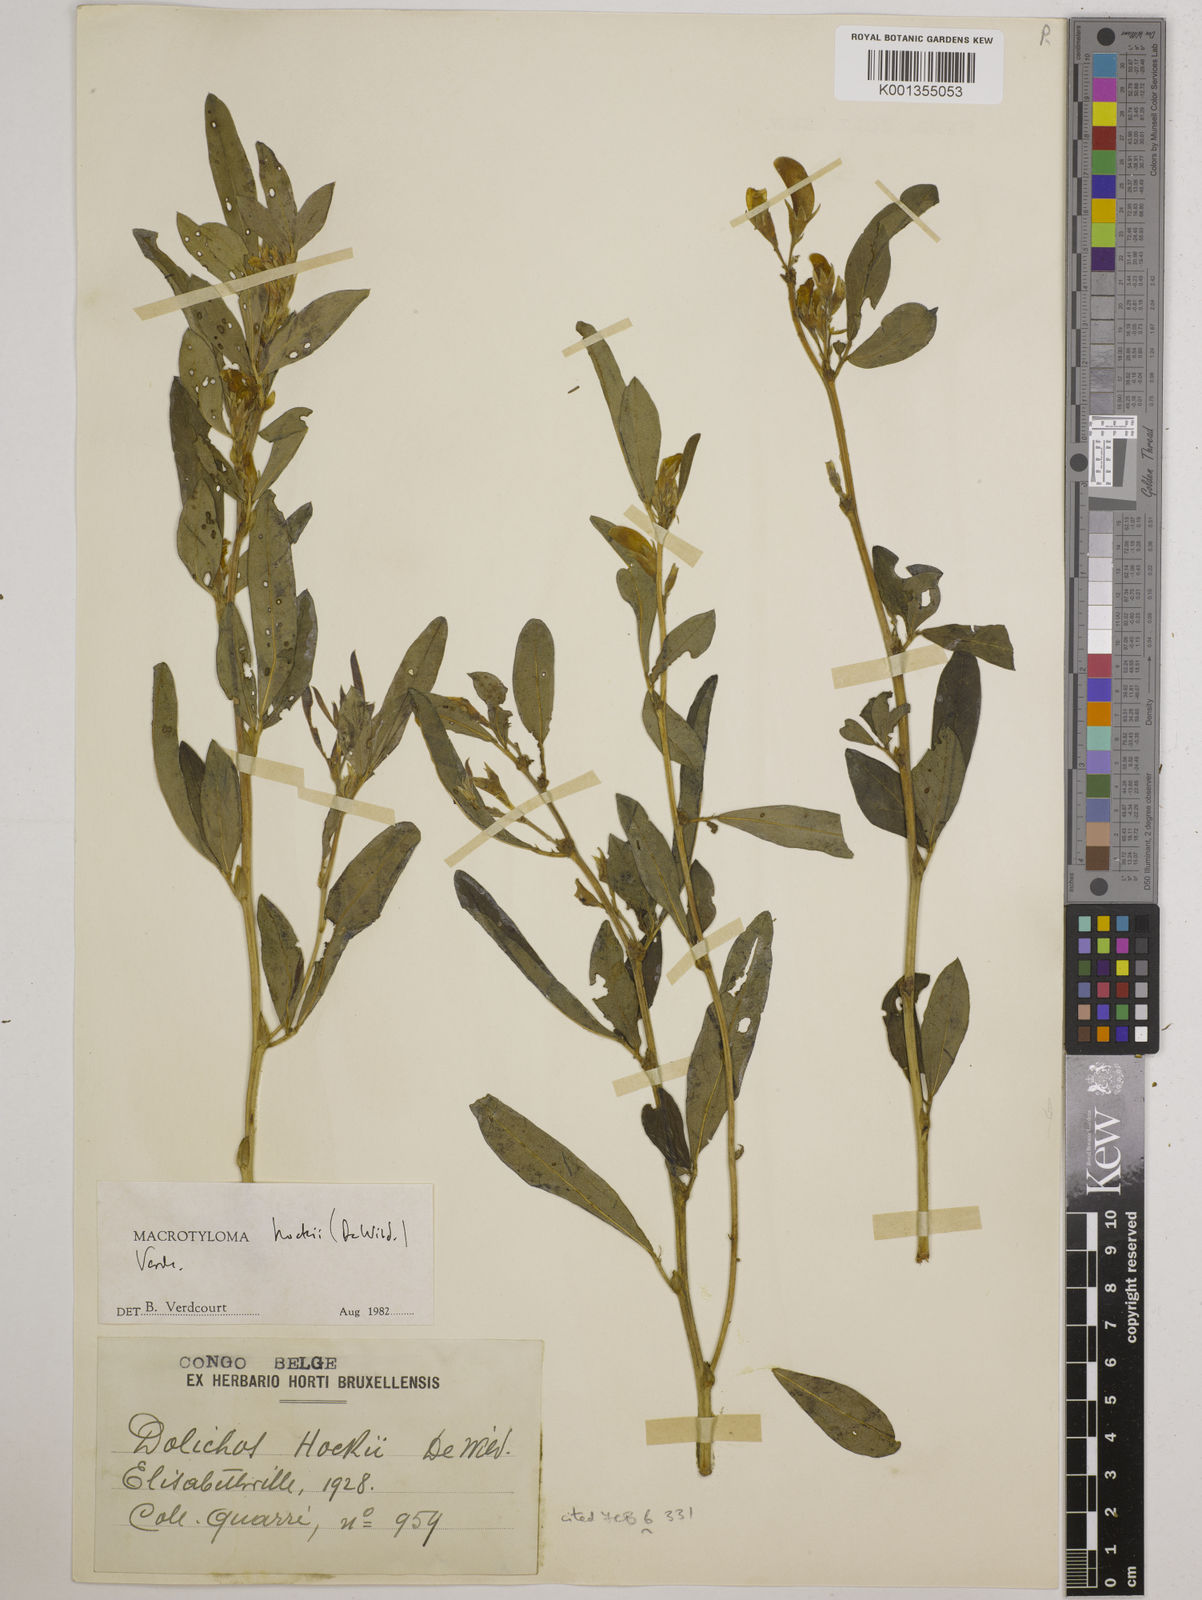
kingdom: Plantae
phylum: Tracheophyta
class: Magnoliopsida
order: Fabales
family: Fabaceae
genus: Macrotyloma
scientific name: Macrotyloma hockii
